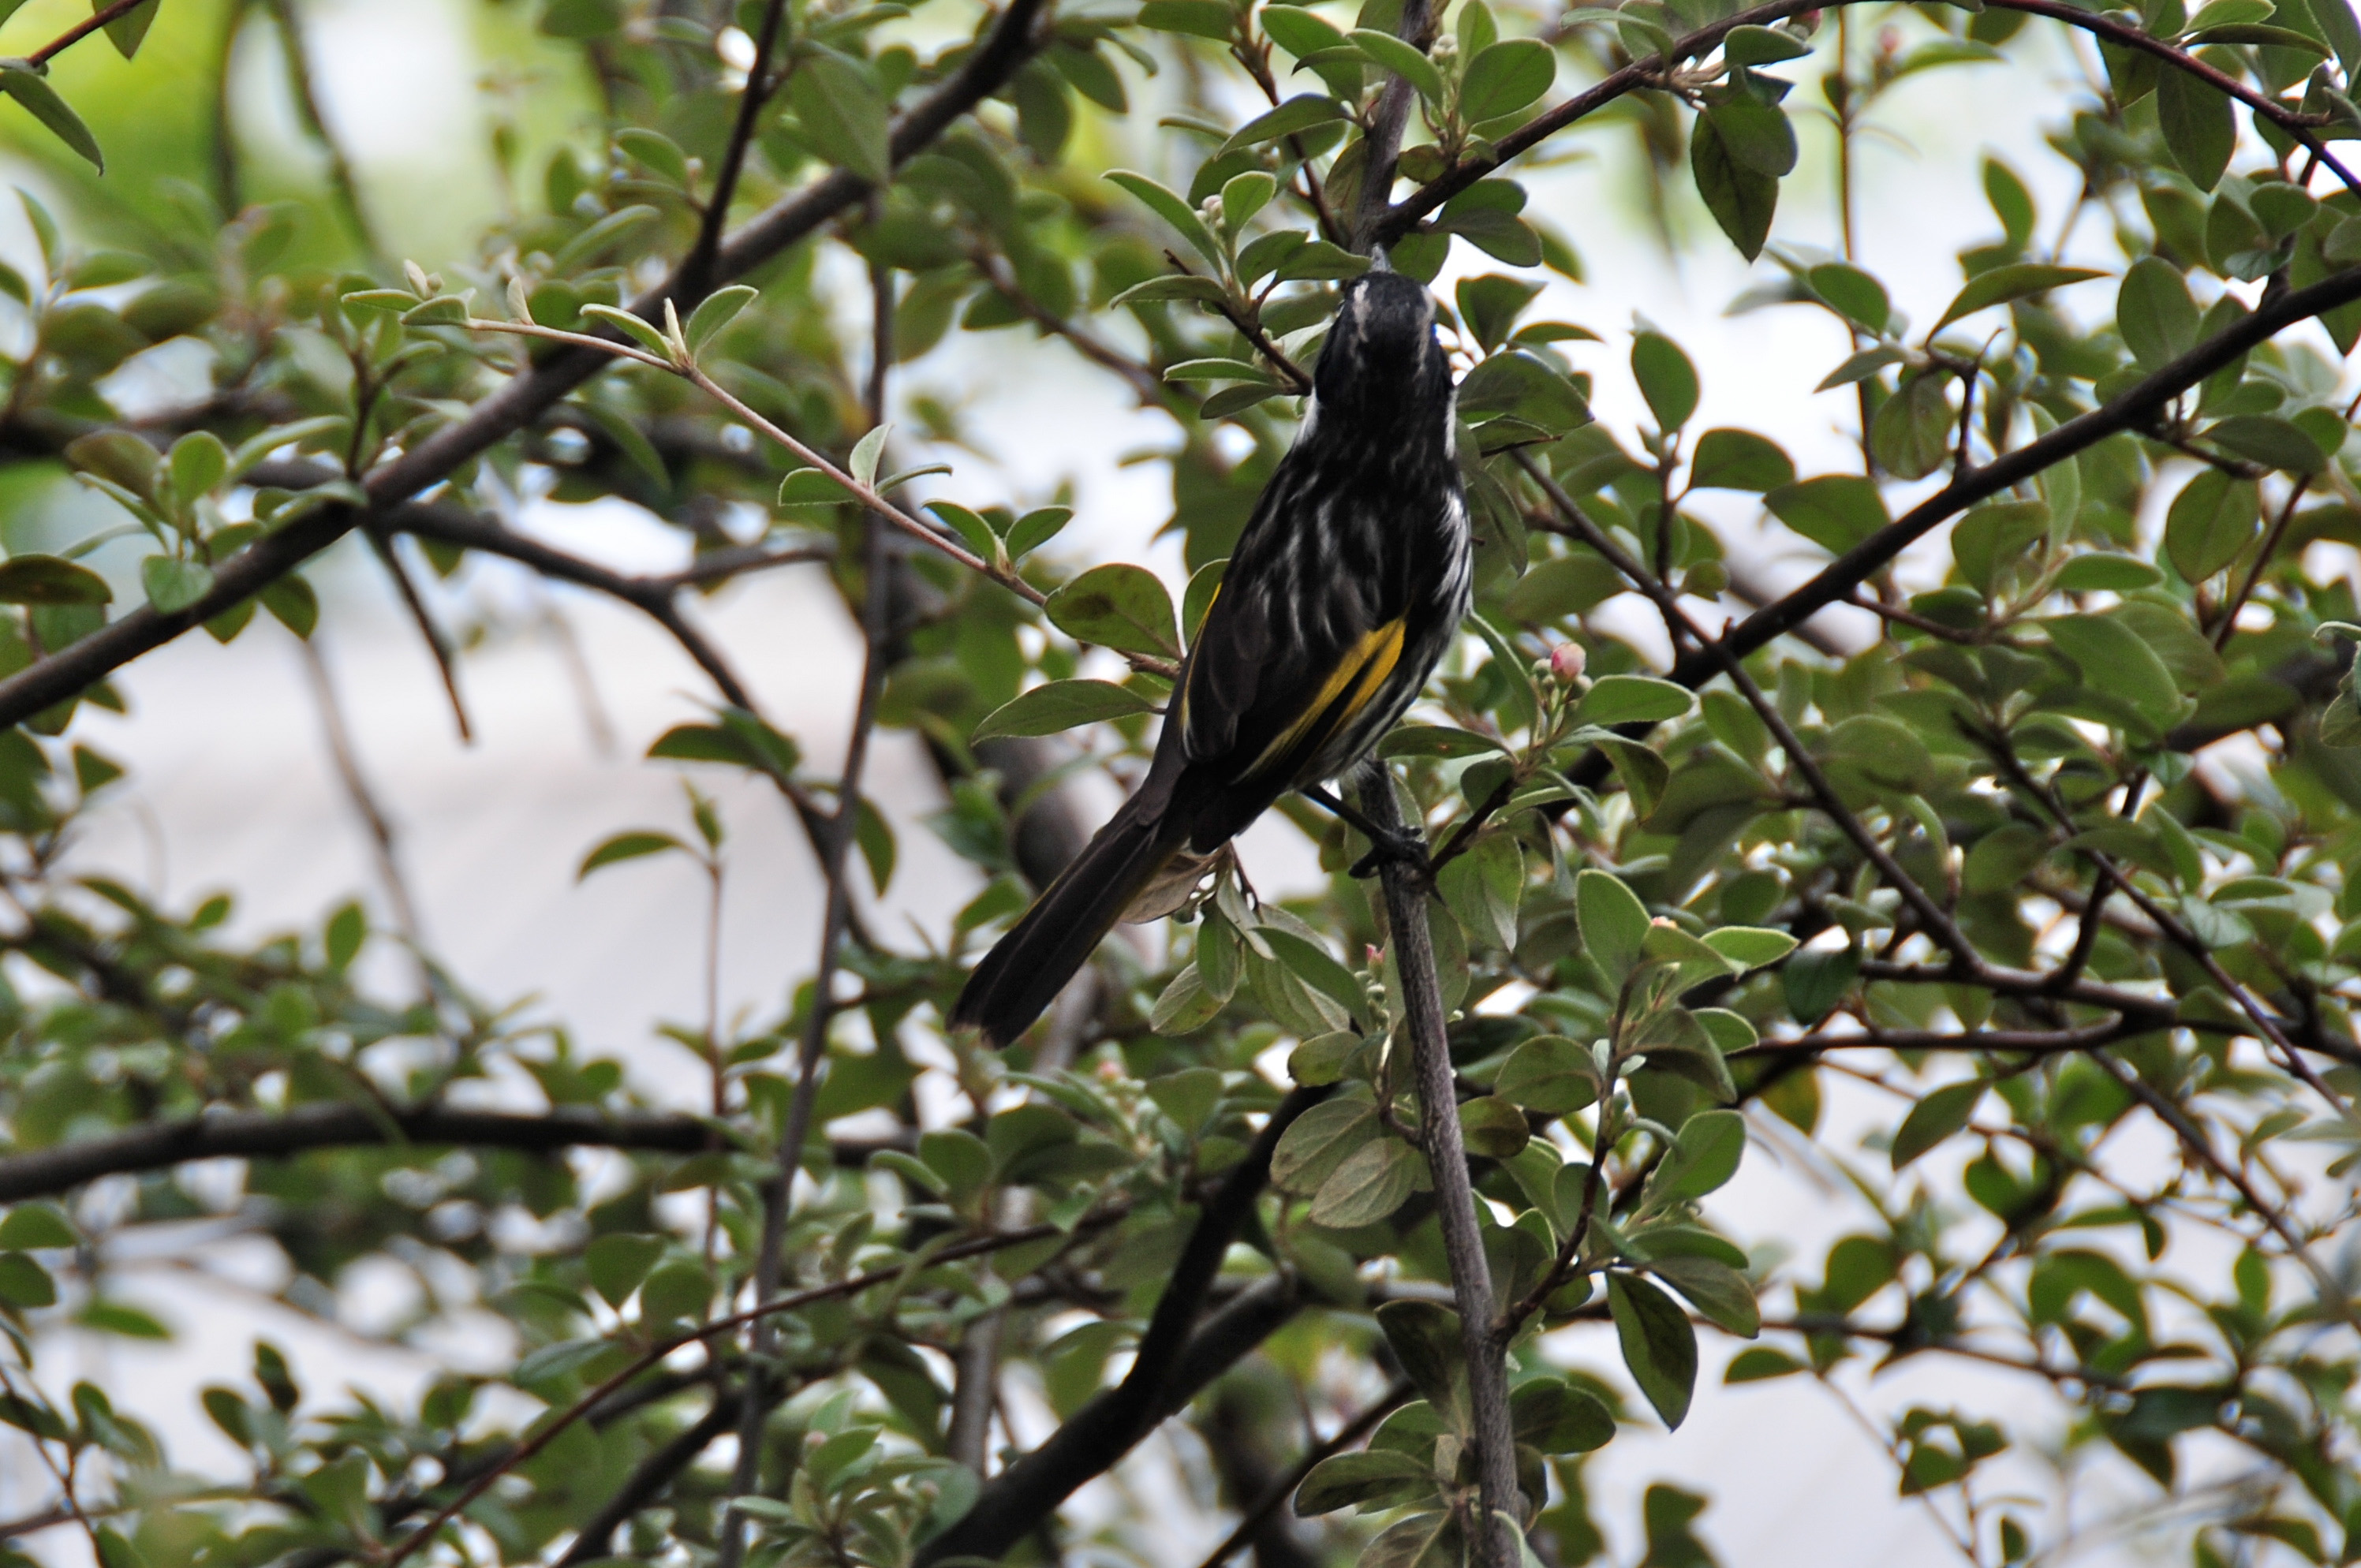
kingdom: Animalia
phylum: Chordata
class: Aves
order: Passeriformes
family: Meliphagidae
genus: Phylidonyris
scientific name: Phylidonyris novaehollandiae
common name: New holland honeyeater
